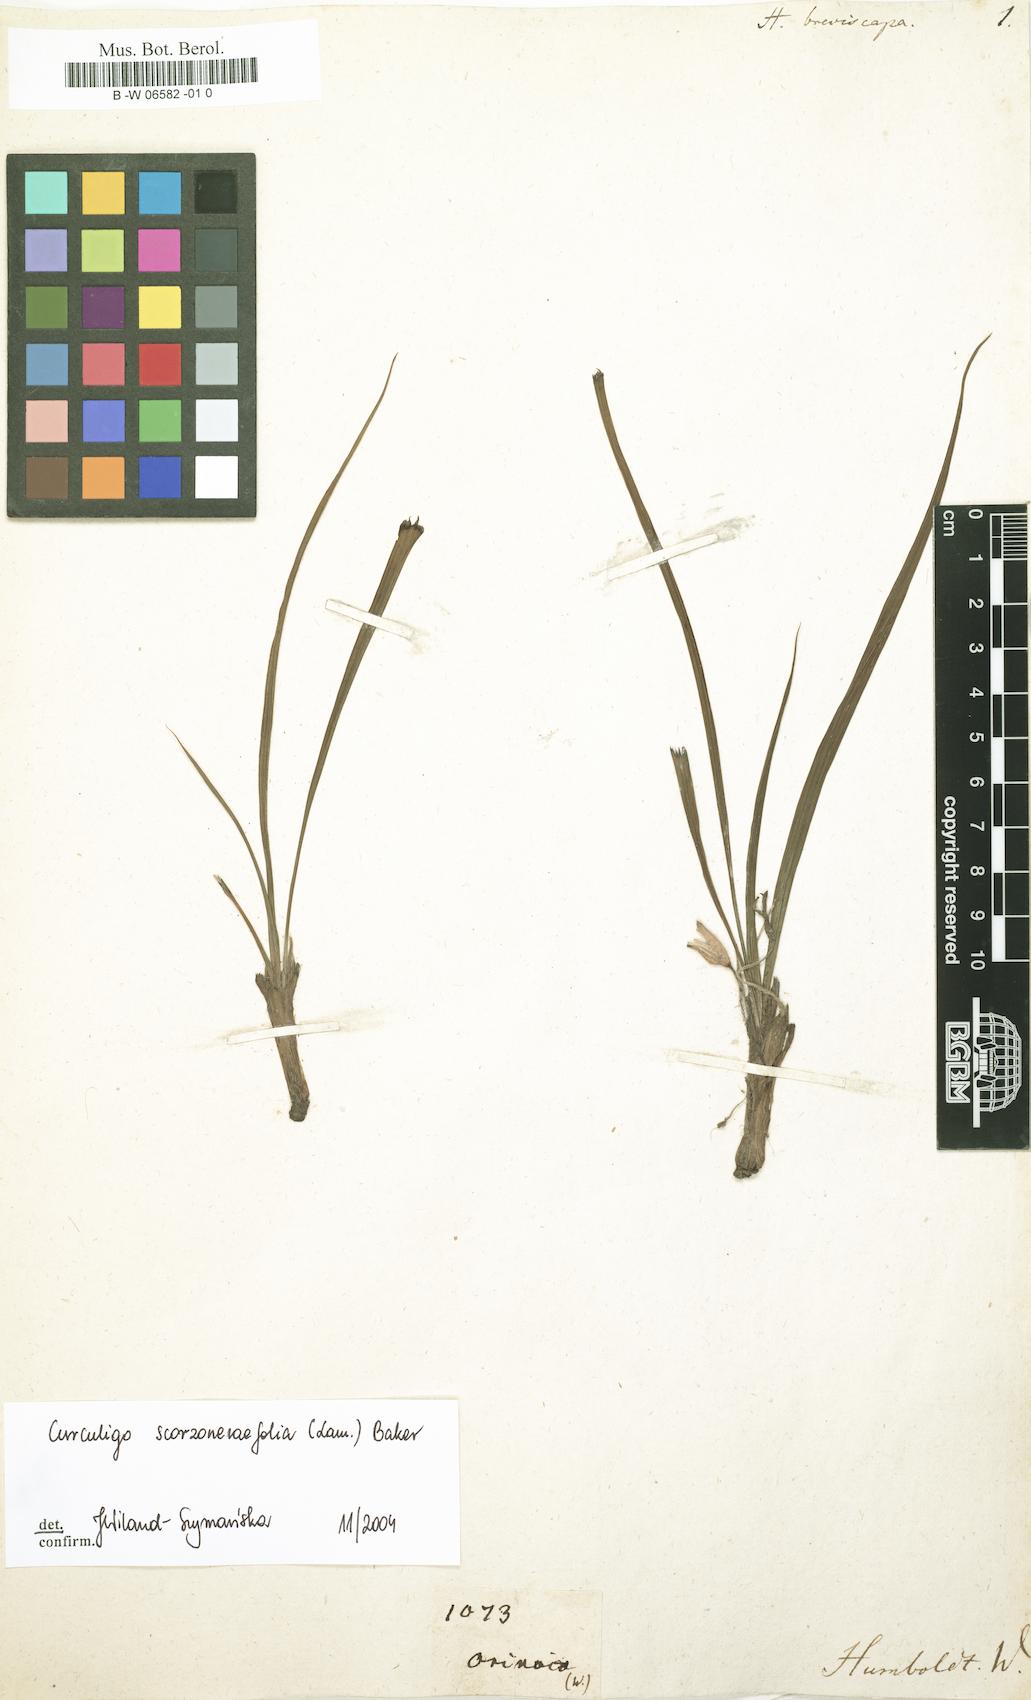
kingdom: Plantae
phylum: Tracheophyta
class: Liliopsida
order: Asparagales
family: Hypoxidaceae
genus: Hypoxis
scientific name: Hypoxis decumbens
